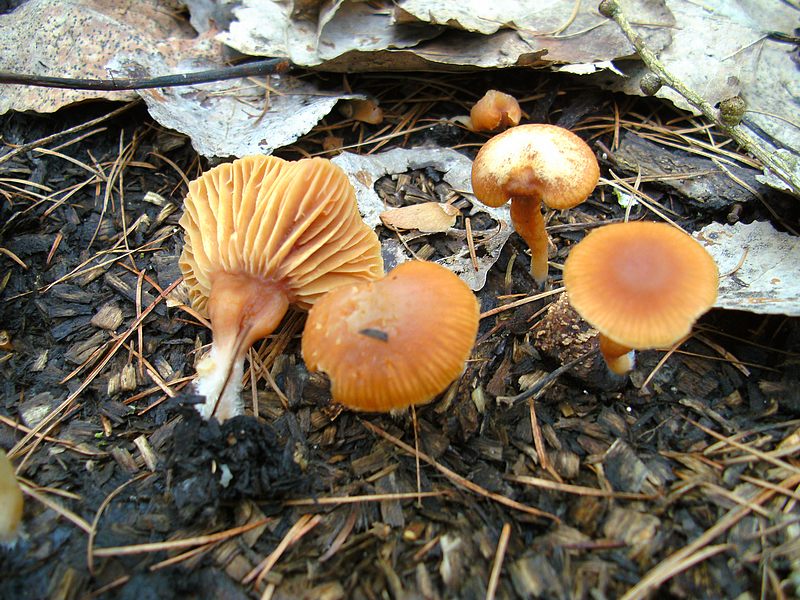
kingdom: Fungi
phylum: Basidiomycota
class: Agaricomycetes
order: Agaricales
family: Tubariaceae
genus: Tubaria
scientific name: Tubaria furfuracea
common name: kliddet fnughat
